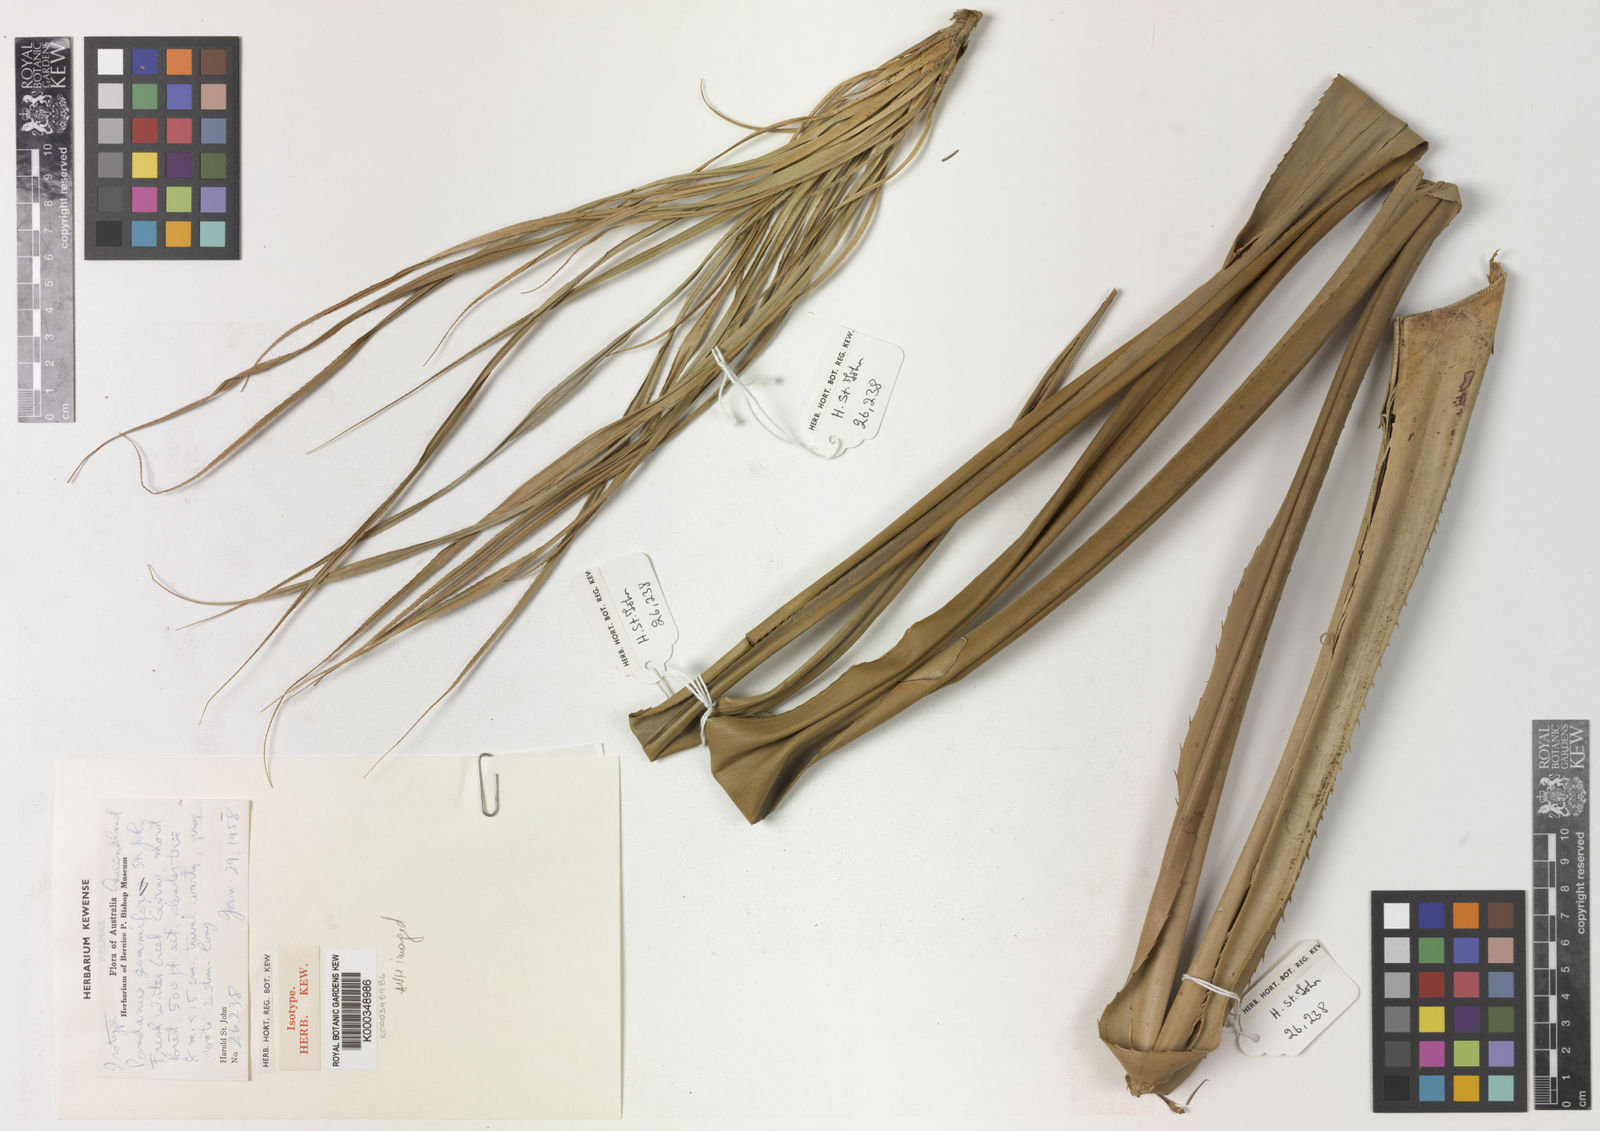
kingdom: Plantae
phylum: Tracheophyta
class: Liliopsida
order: Pandanales
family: Pandanaceae
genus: Pandanus
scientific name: Pandanus
